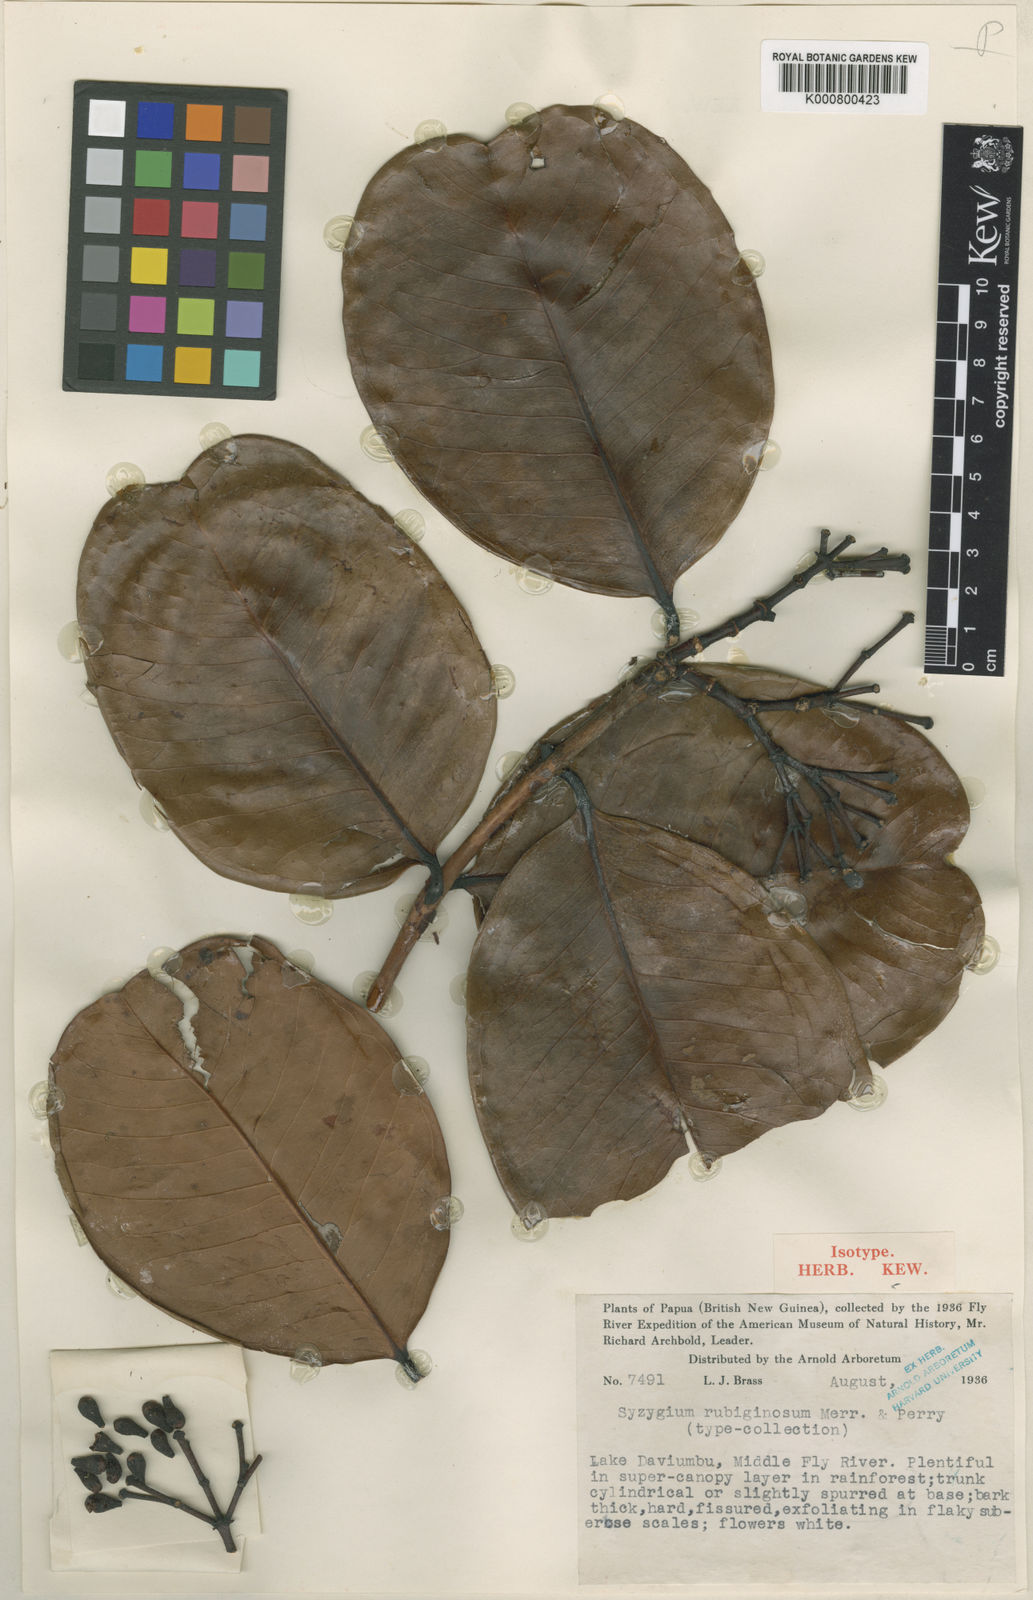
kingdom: Plantae
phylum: Tracheophyta
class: Magnoliopsida
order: Myrtales
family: Myrtaceae
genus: Syzygium
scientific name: Syzygium forte
